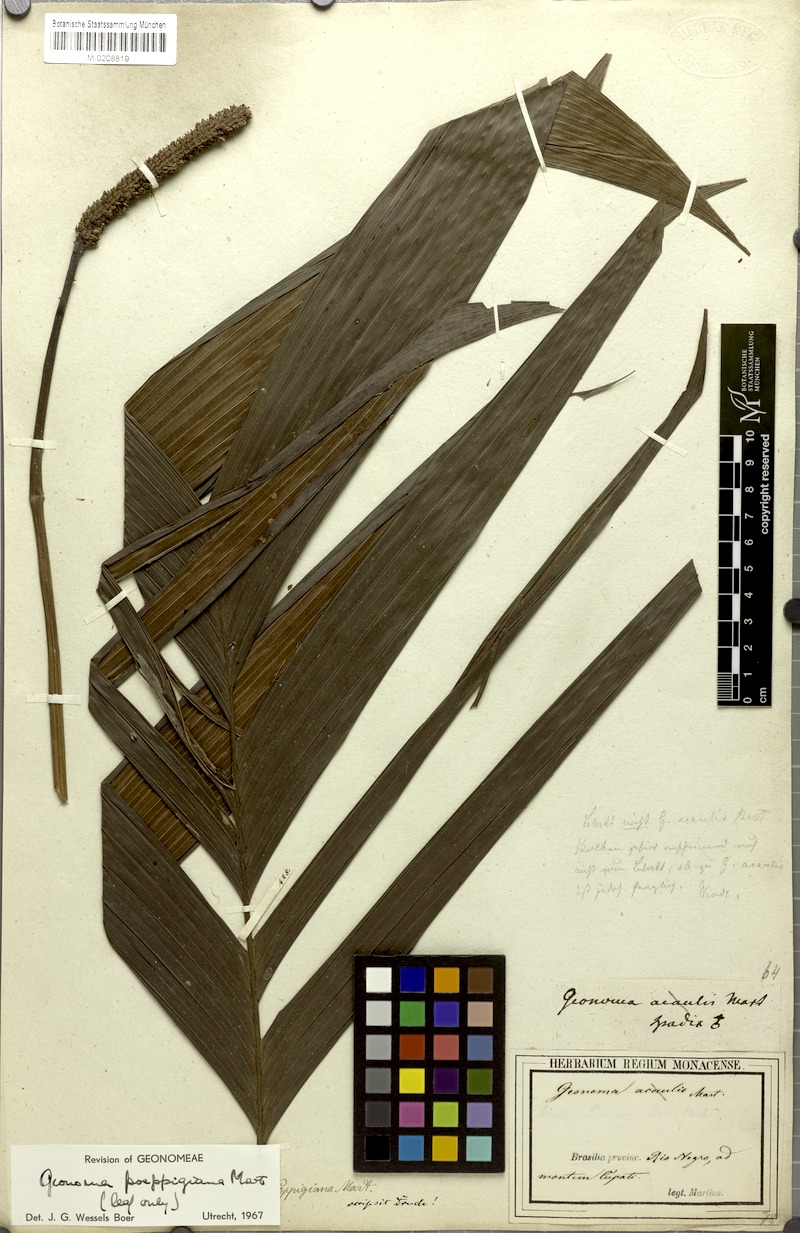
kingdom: Plantae
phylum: Tracheophyta
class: Liliopsida
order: Arecales
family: Arecaceae
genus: Geonoma
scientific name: Geonoma poeppigiana
